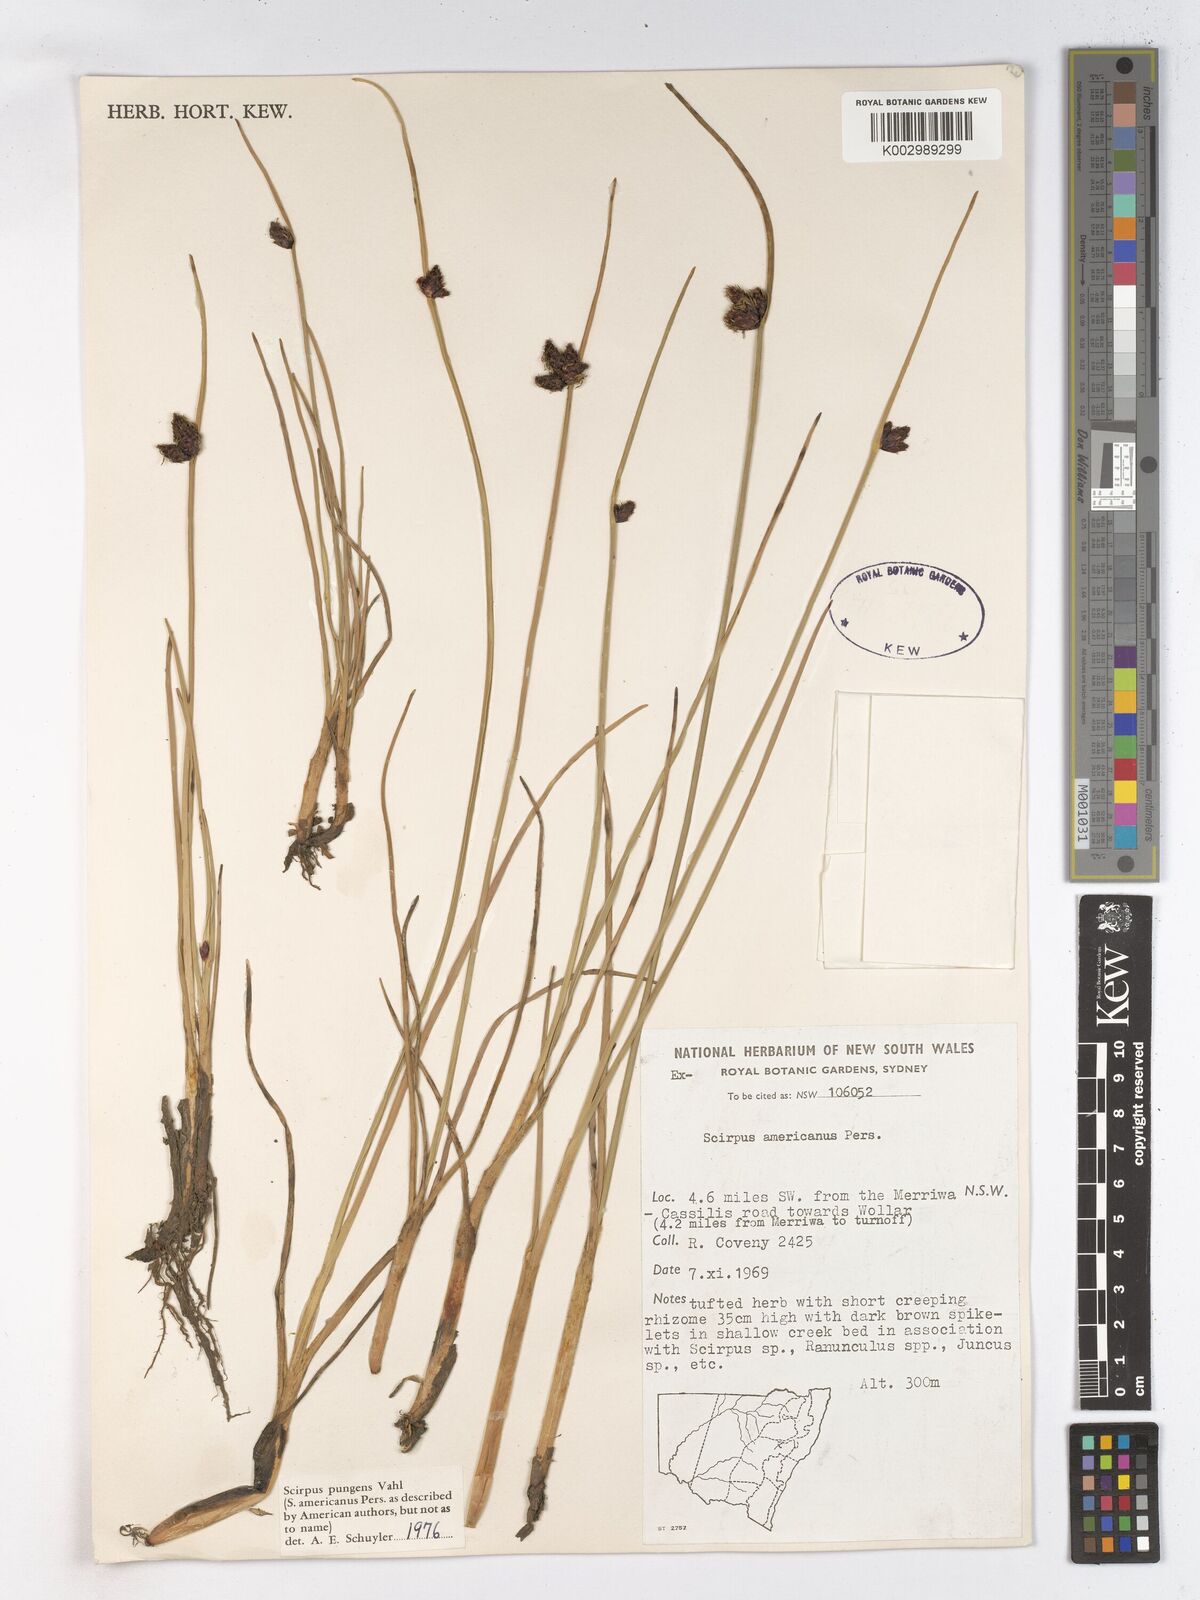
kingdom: Plantae
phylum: Tracheophyta
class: Liliopsida
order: Poales
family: Cyperaceae
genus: Schoenoplectus
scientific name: Schoenoplectus pungens
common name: Sharp club-rush
